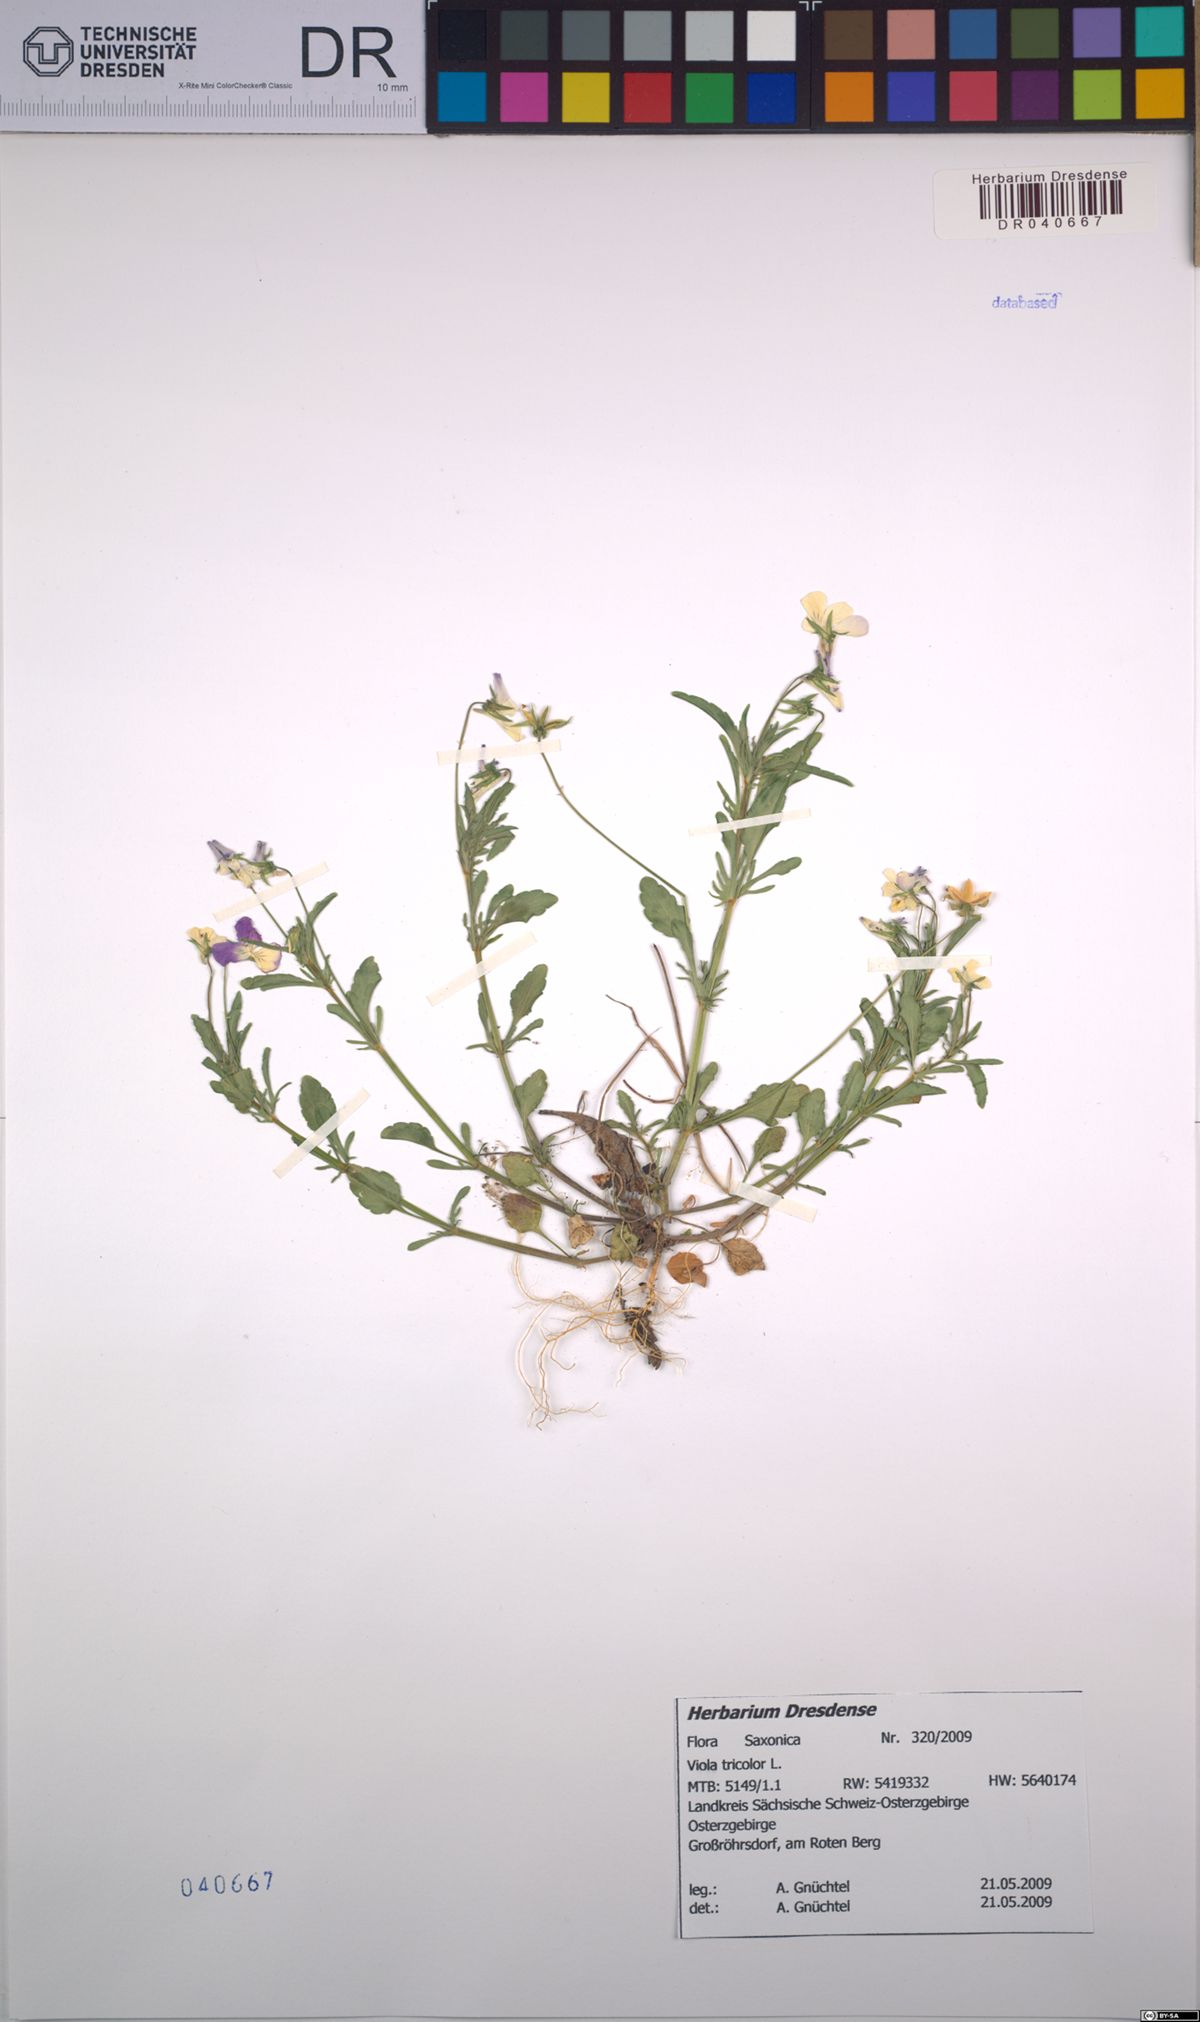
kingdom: Plantae
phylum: Tracheophyta
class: Magnoliopsida
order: Malpighiales
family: Violaceae
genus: Viola
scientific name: Viola tricolor
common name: Pansy
